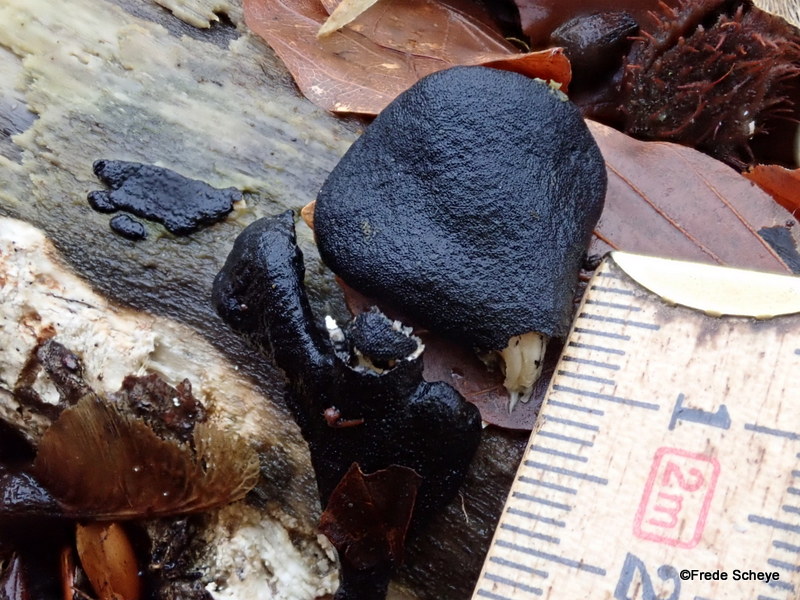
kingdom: Fungi
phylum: Ascomycota
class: Sordariomycetes
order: Xylariales
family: Xylariaceae
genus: Xylaria
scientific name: Xylaria longipes
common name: slank stødsvamp
